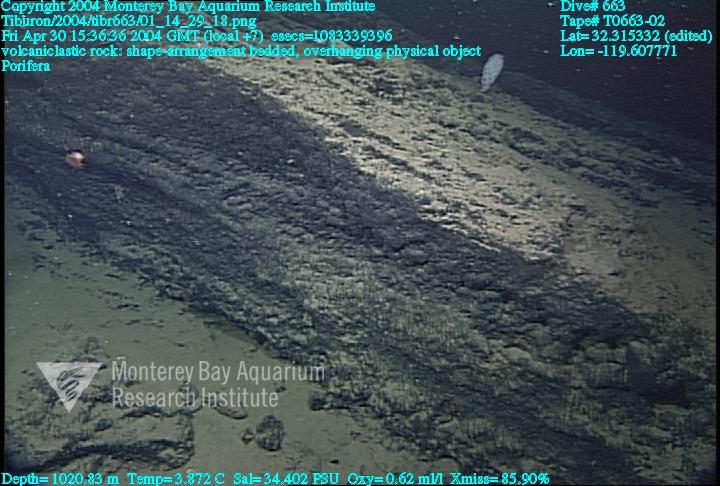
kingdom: Animalia
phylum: Porifera
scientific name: Porifera
